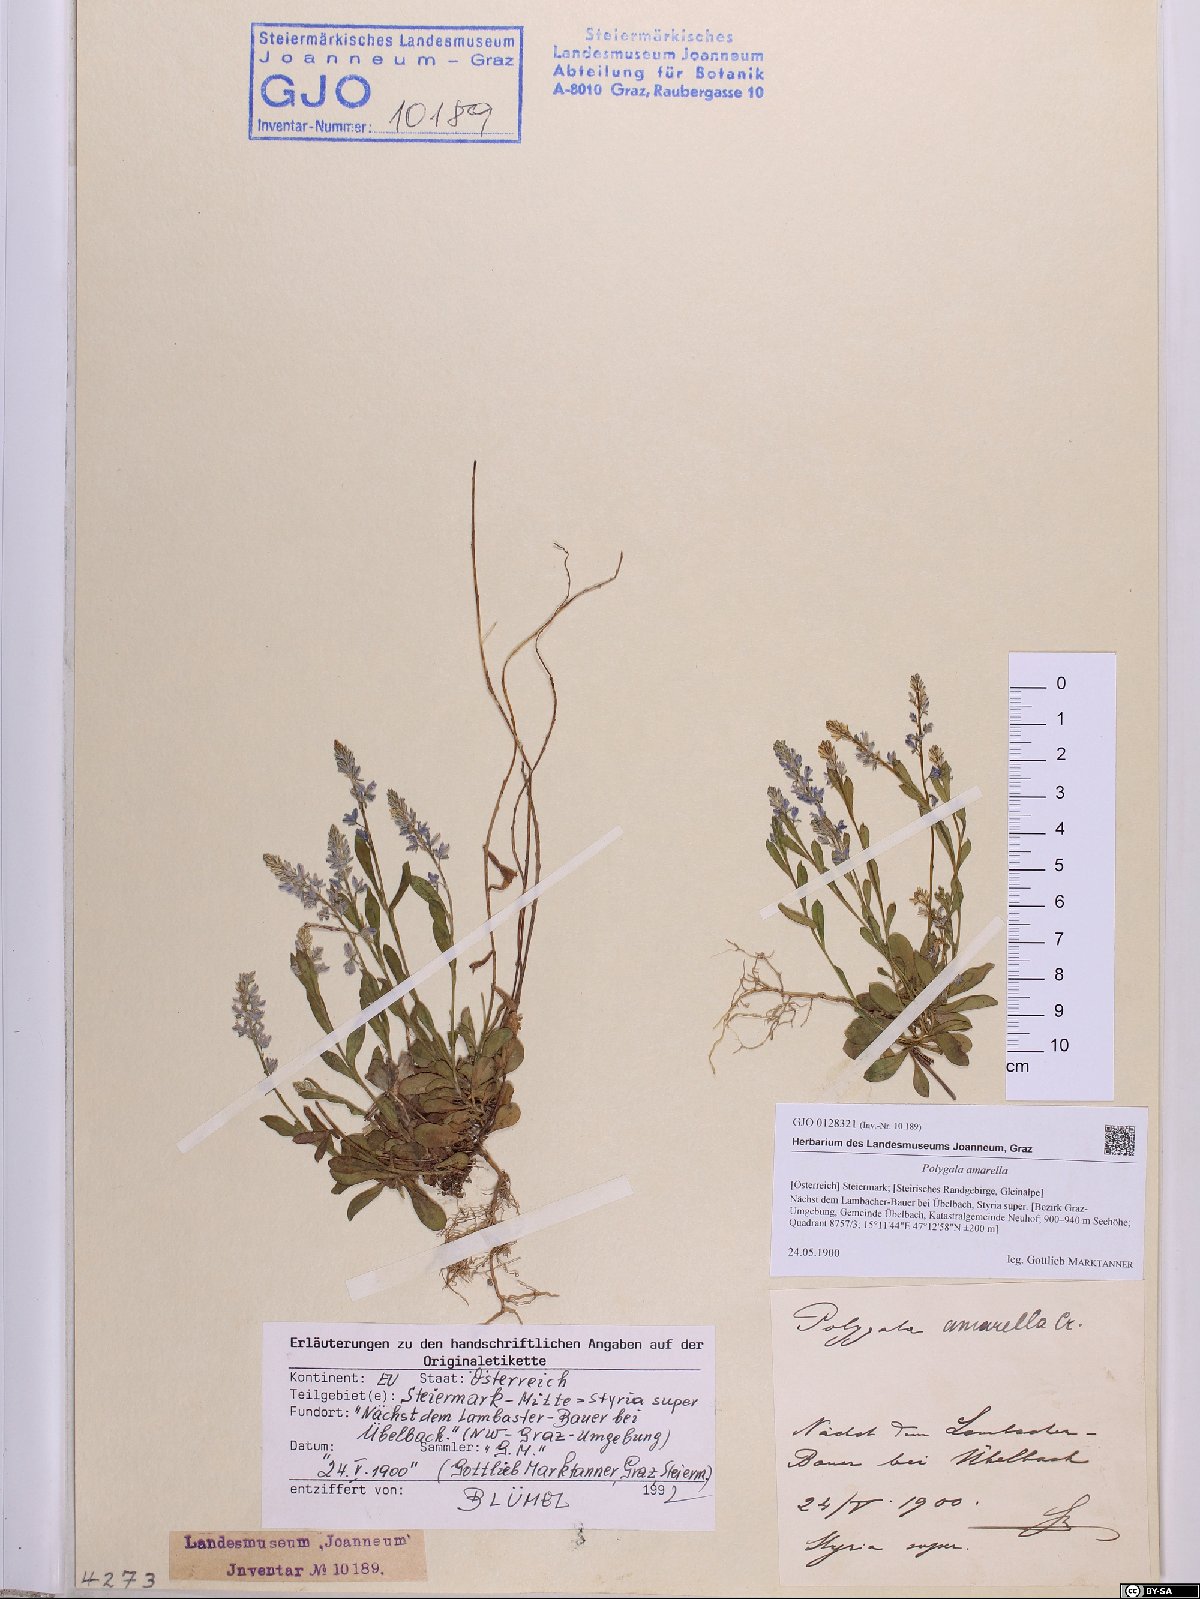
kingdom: Plantae
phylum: Tracheophyta
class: Magnoliopsida
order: Fabales
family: Polygalaceae
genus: Polygala
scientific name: Polygala amarella
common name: Dwarf milkwort
